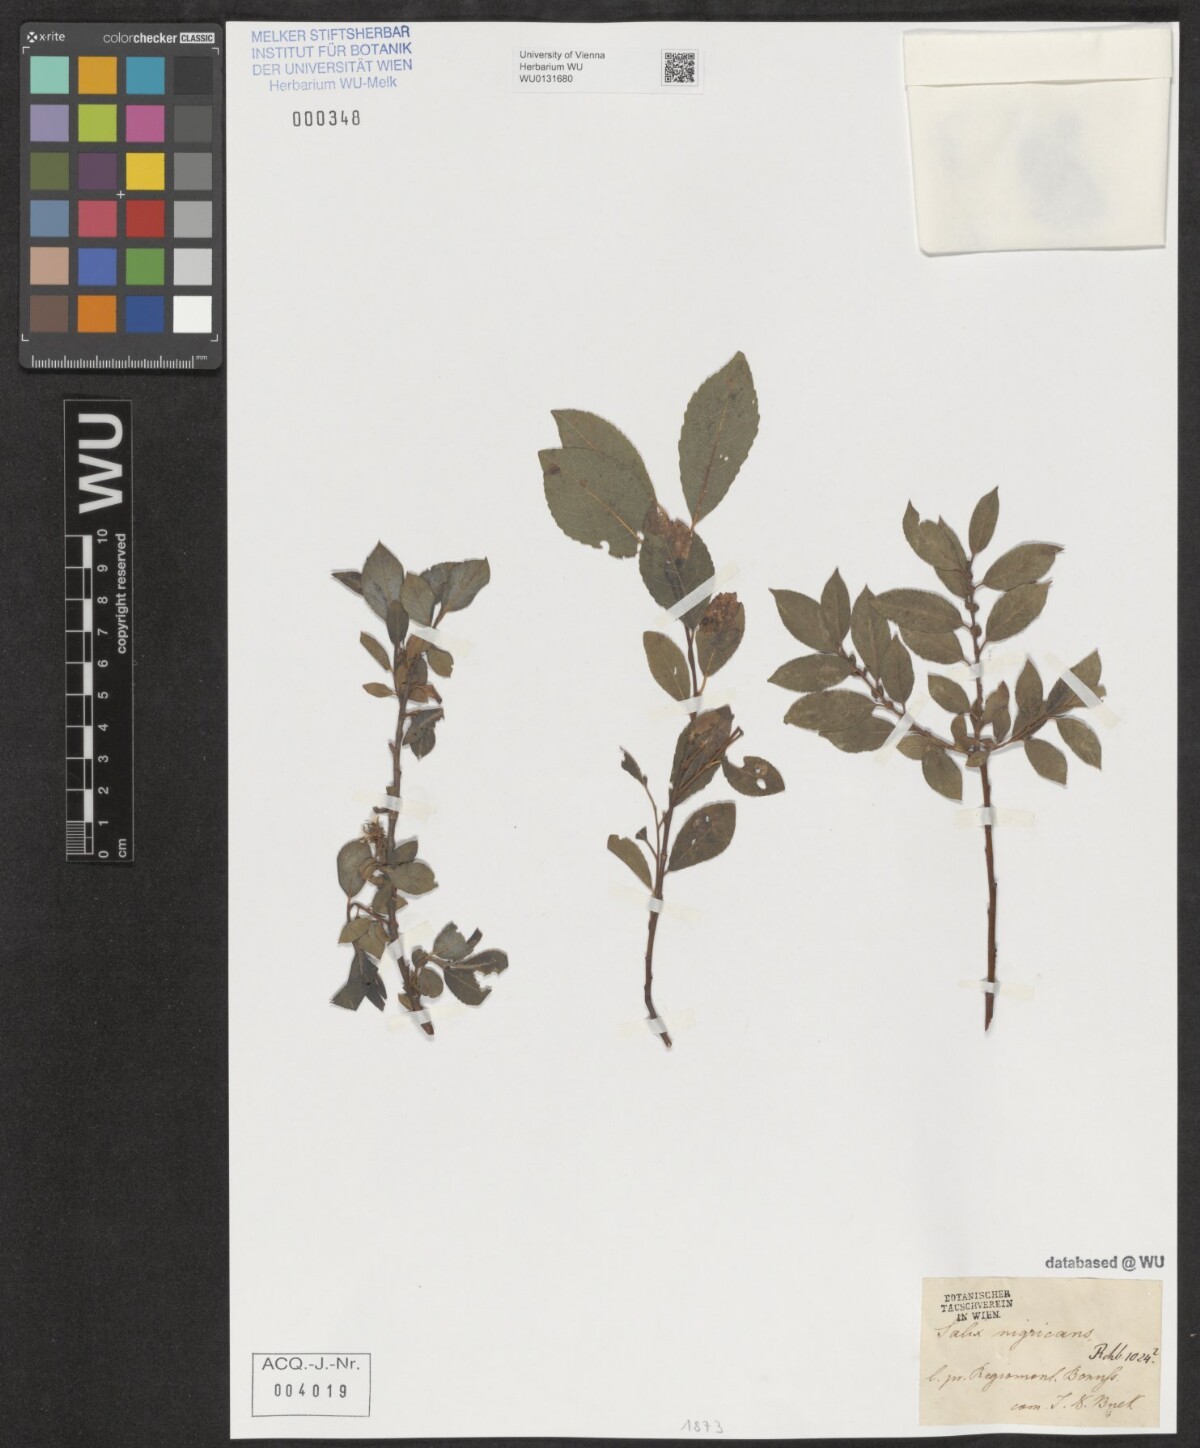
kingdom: Plantae
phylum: Tracheophyta
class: Magnoliopsida
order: Malpighiales
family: Salicaceae
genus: Salix
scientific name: Salix myrsinifolia
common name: Dark-leaved willow
